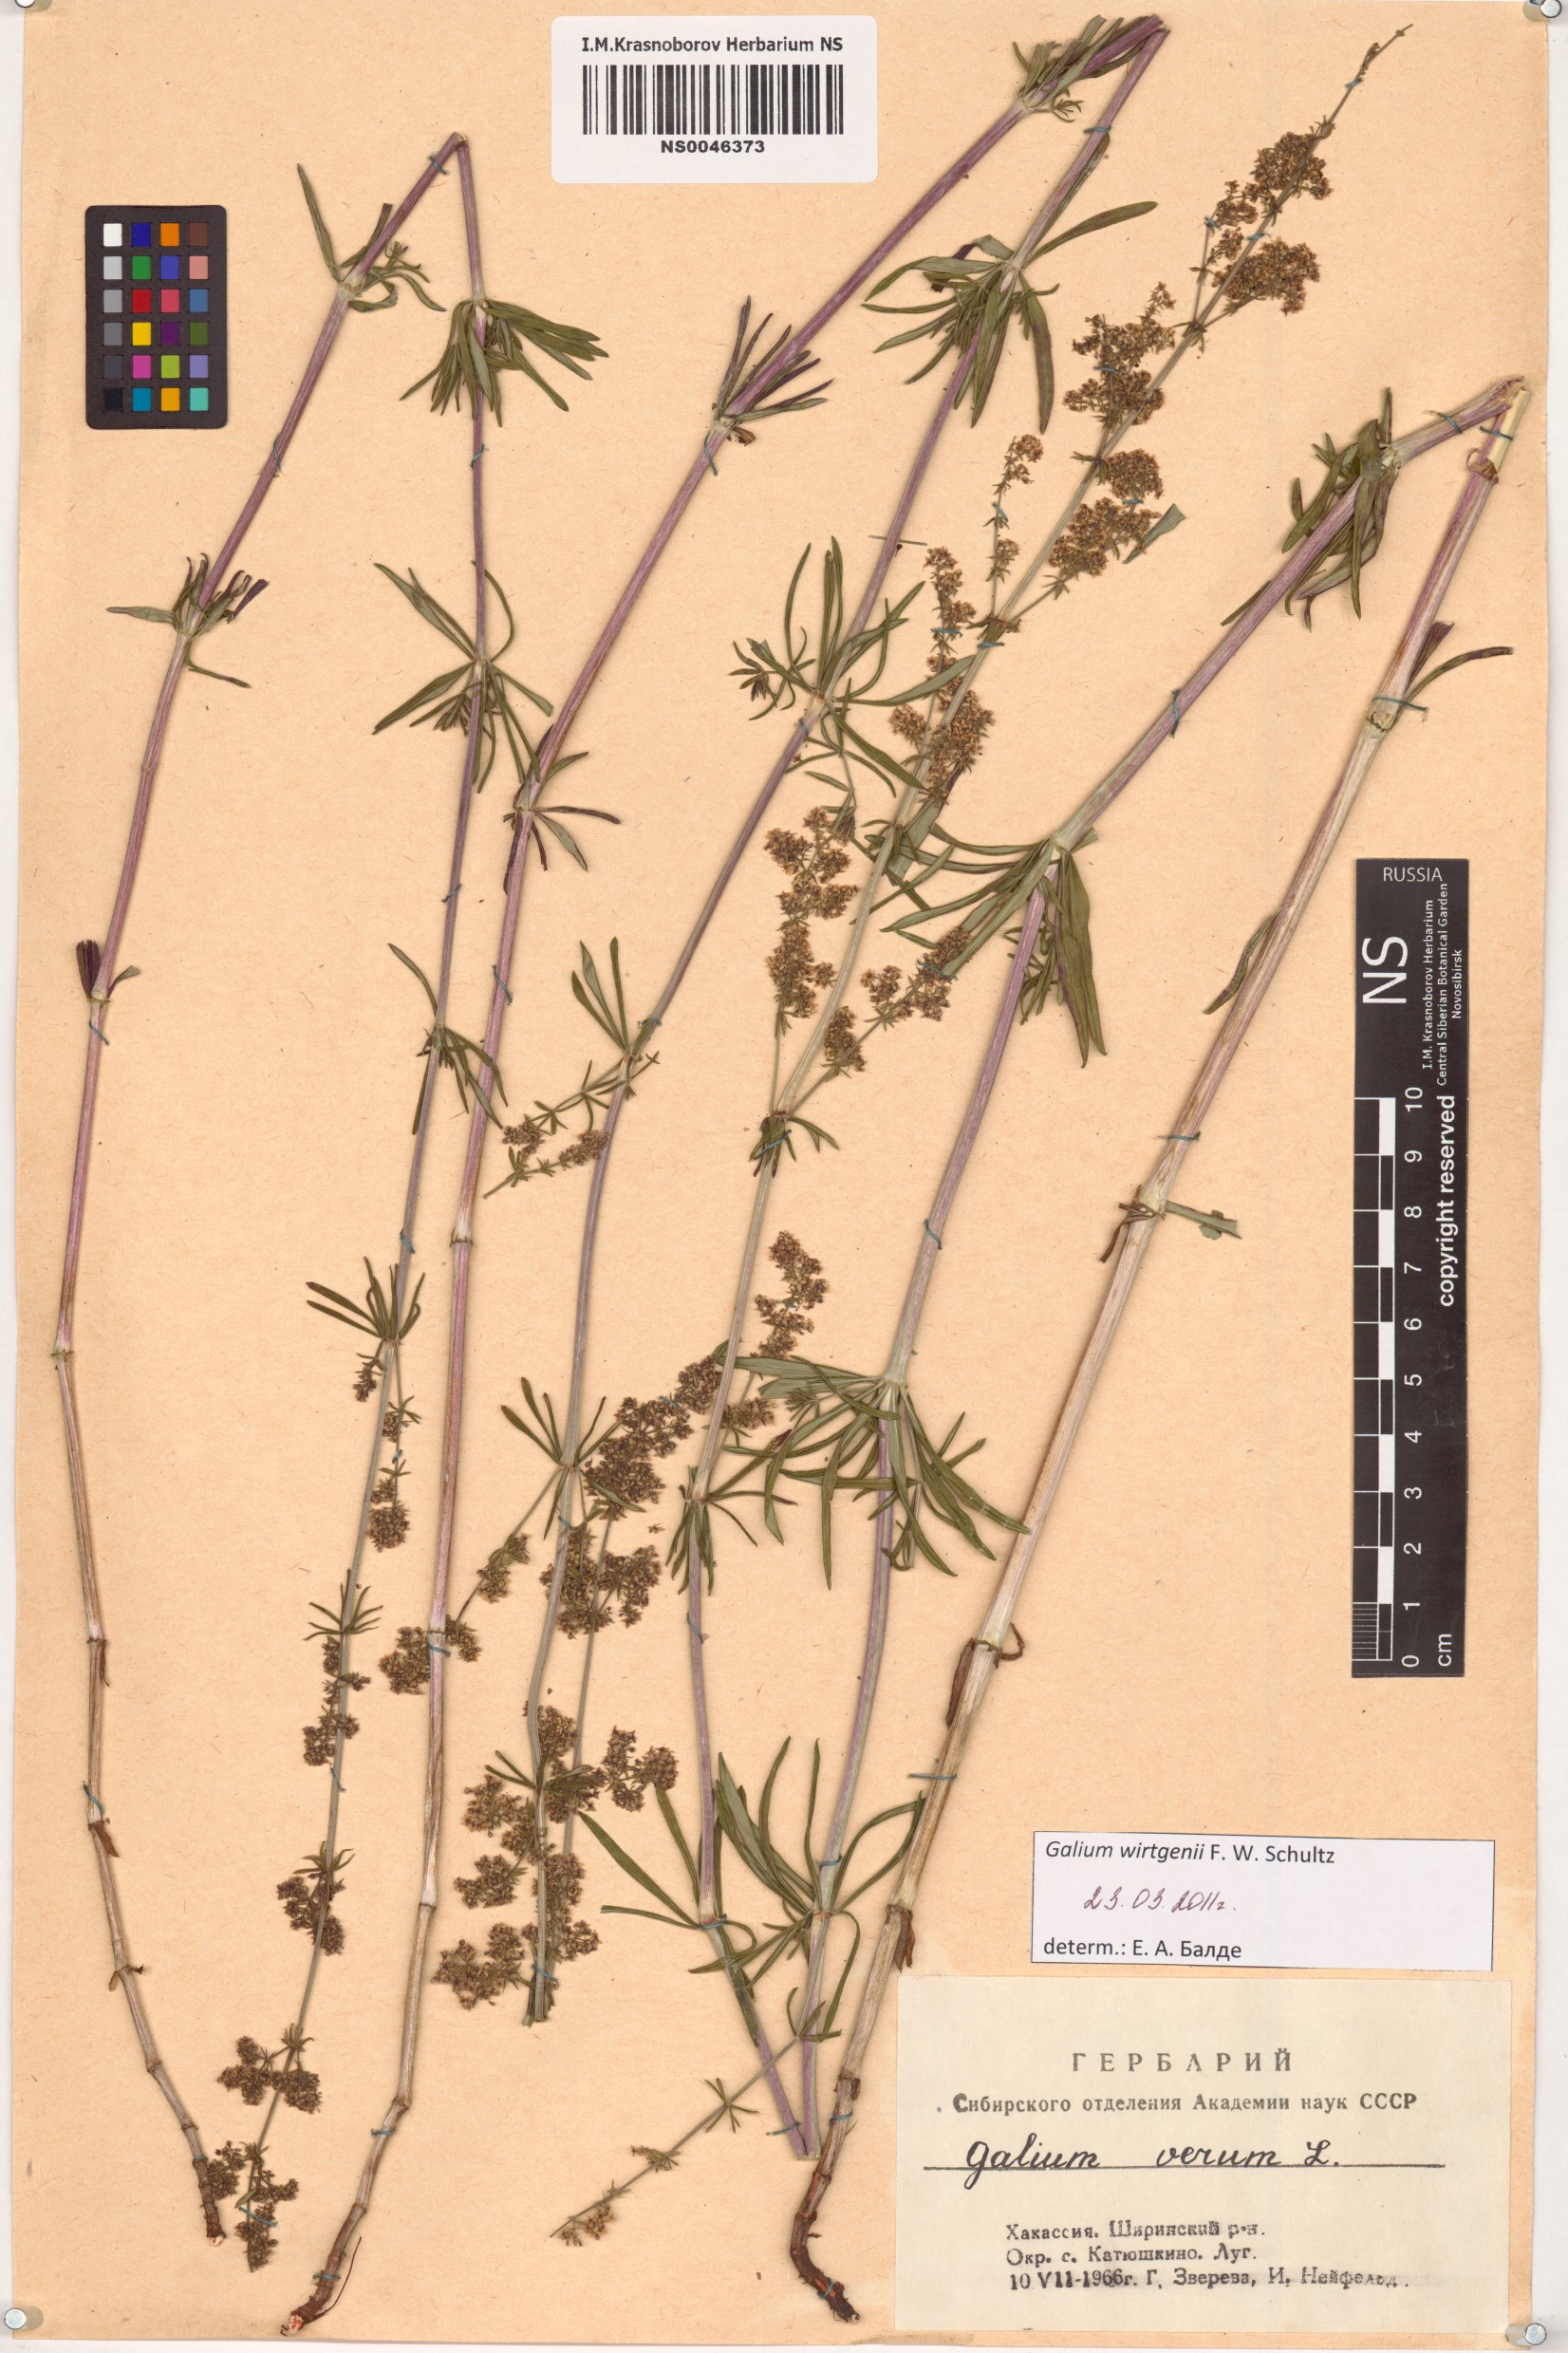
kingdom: Plantae
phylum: Tracheophyta
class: Magnoliopsida
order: Gentianales
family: Rubiaceae
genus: Galium
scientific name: Galium verum
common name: Lady's bedstraw
